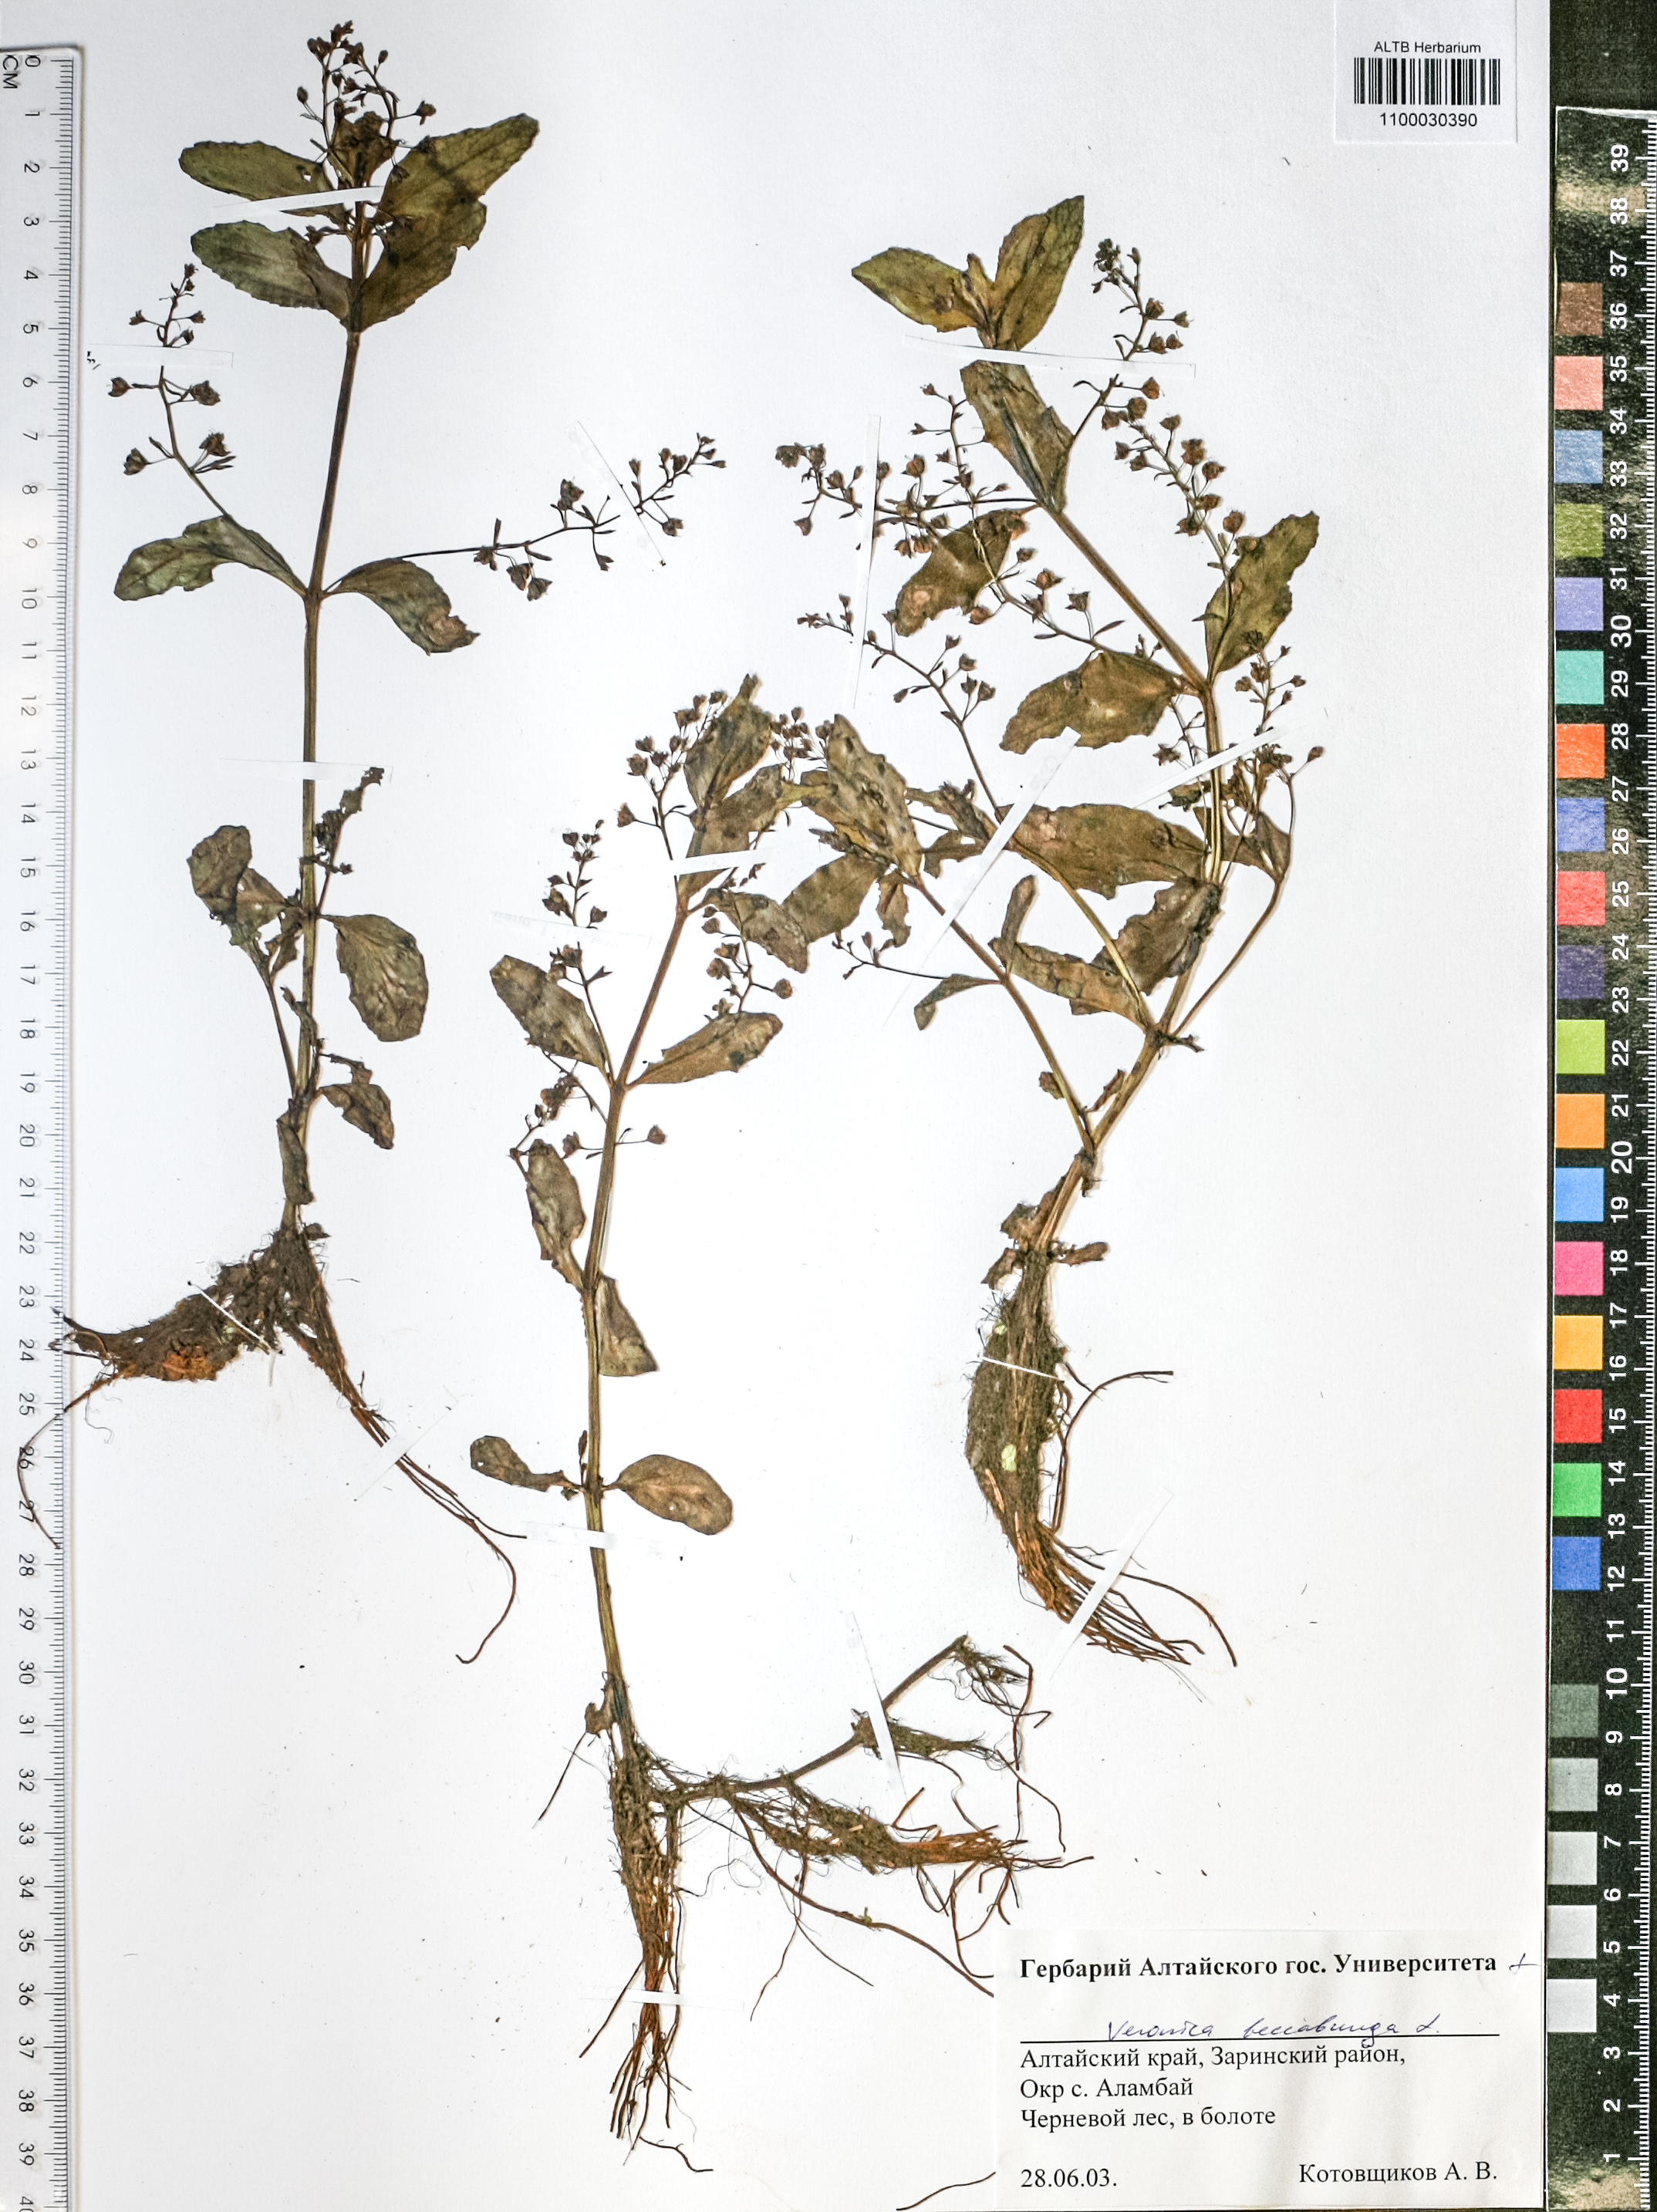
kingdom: Plantae
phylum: Tracheophyta
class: Magnoliopsida
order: Lamiales
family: Plantaginaceae
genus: Veronica
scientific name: Veronica beccabunga
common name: Brooklime
